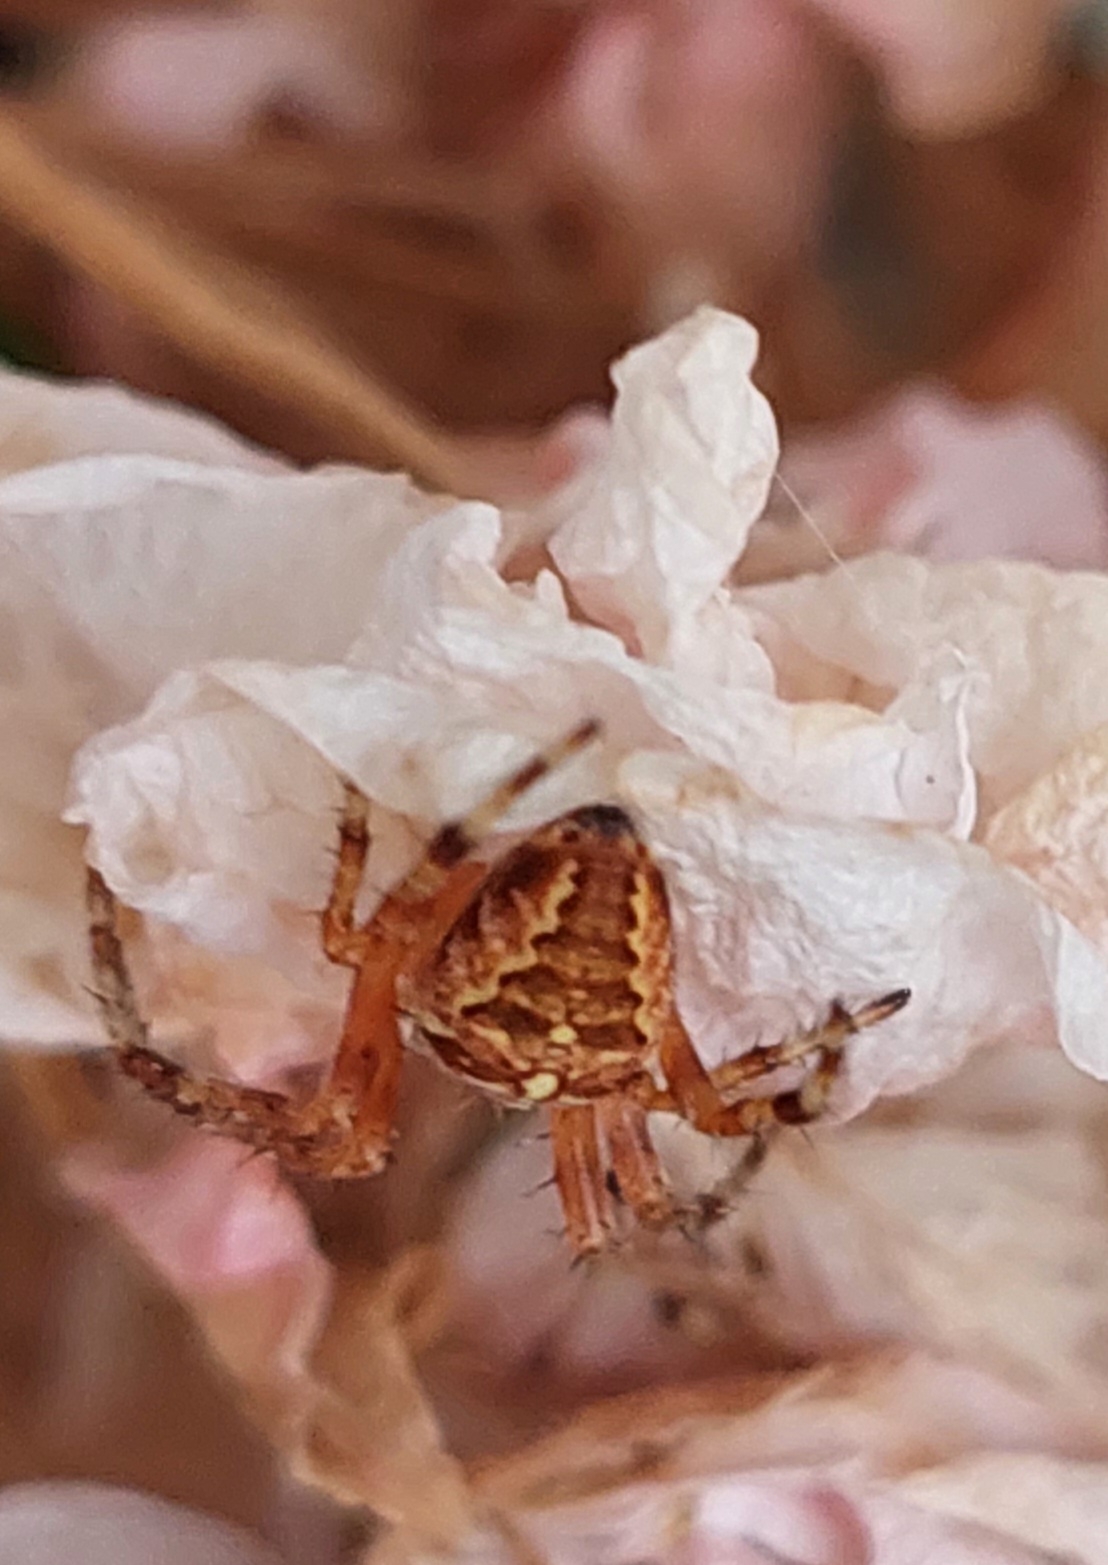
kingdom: Animalia
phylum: Arthropoda
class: Arachnida
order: Araneae
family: Araneidae
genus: Araneus
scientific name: Araneus diadematus
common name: Korsedderkop
